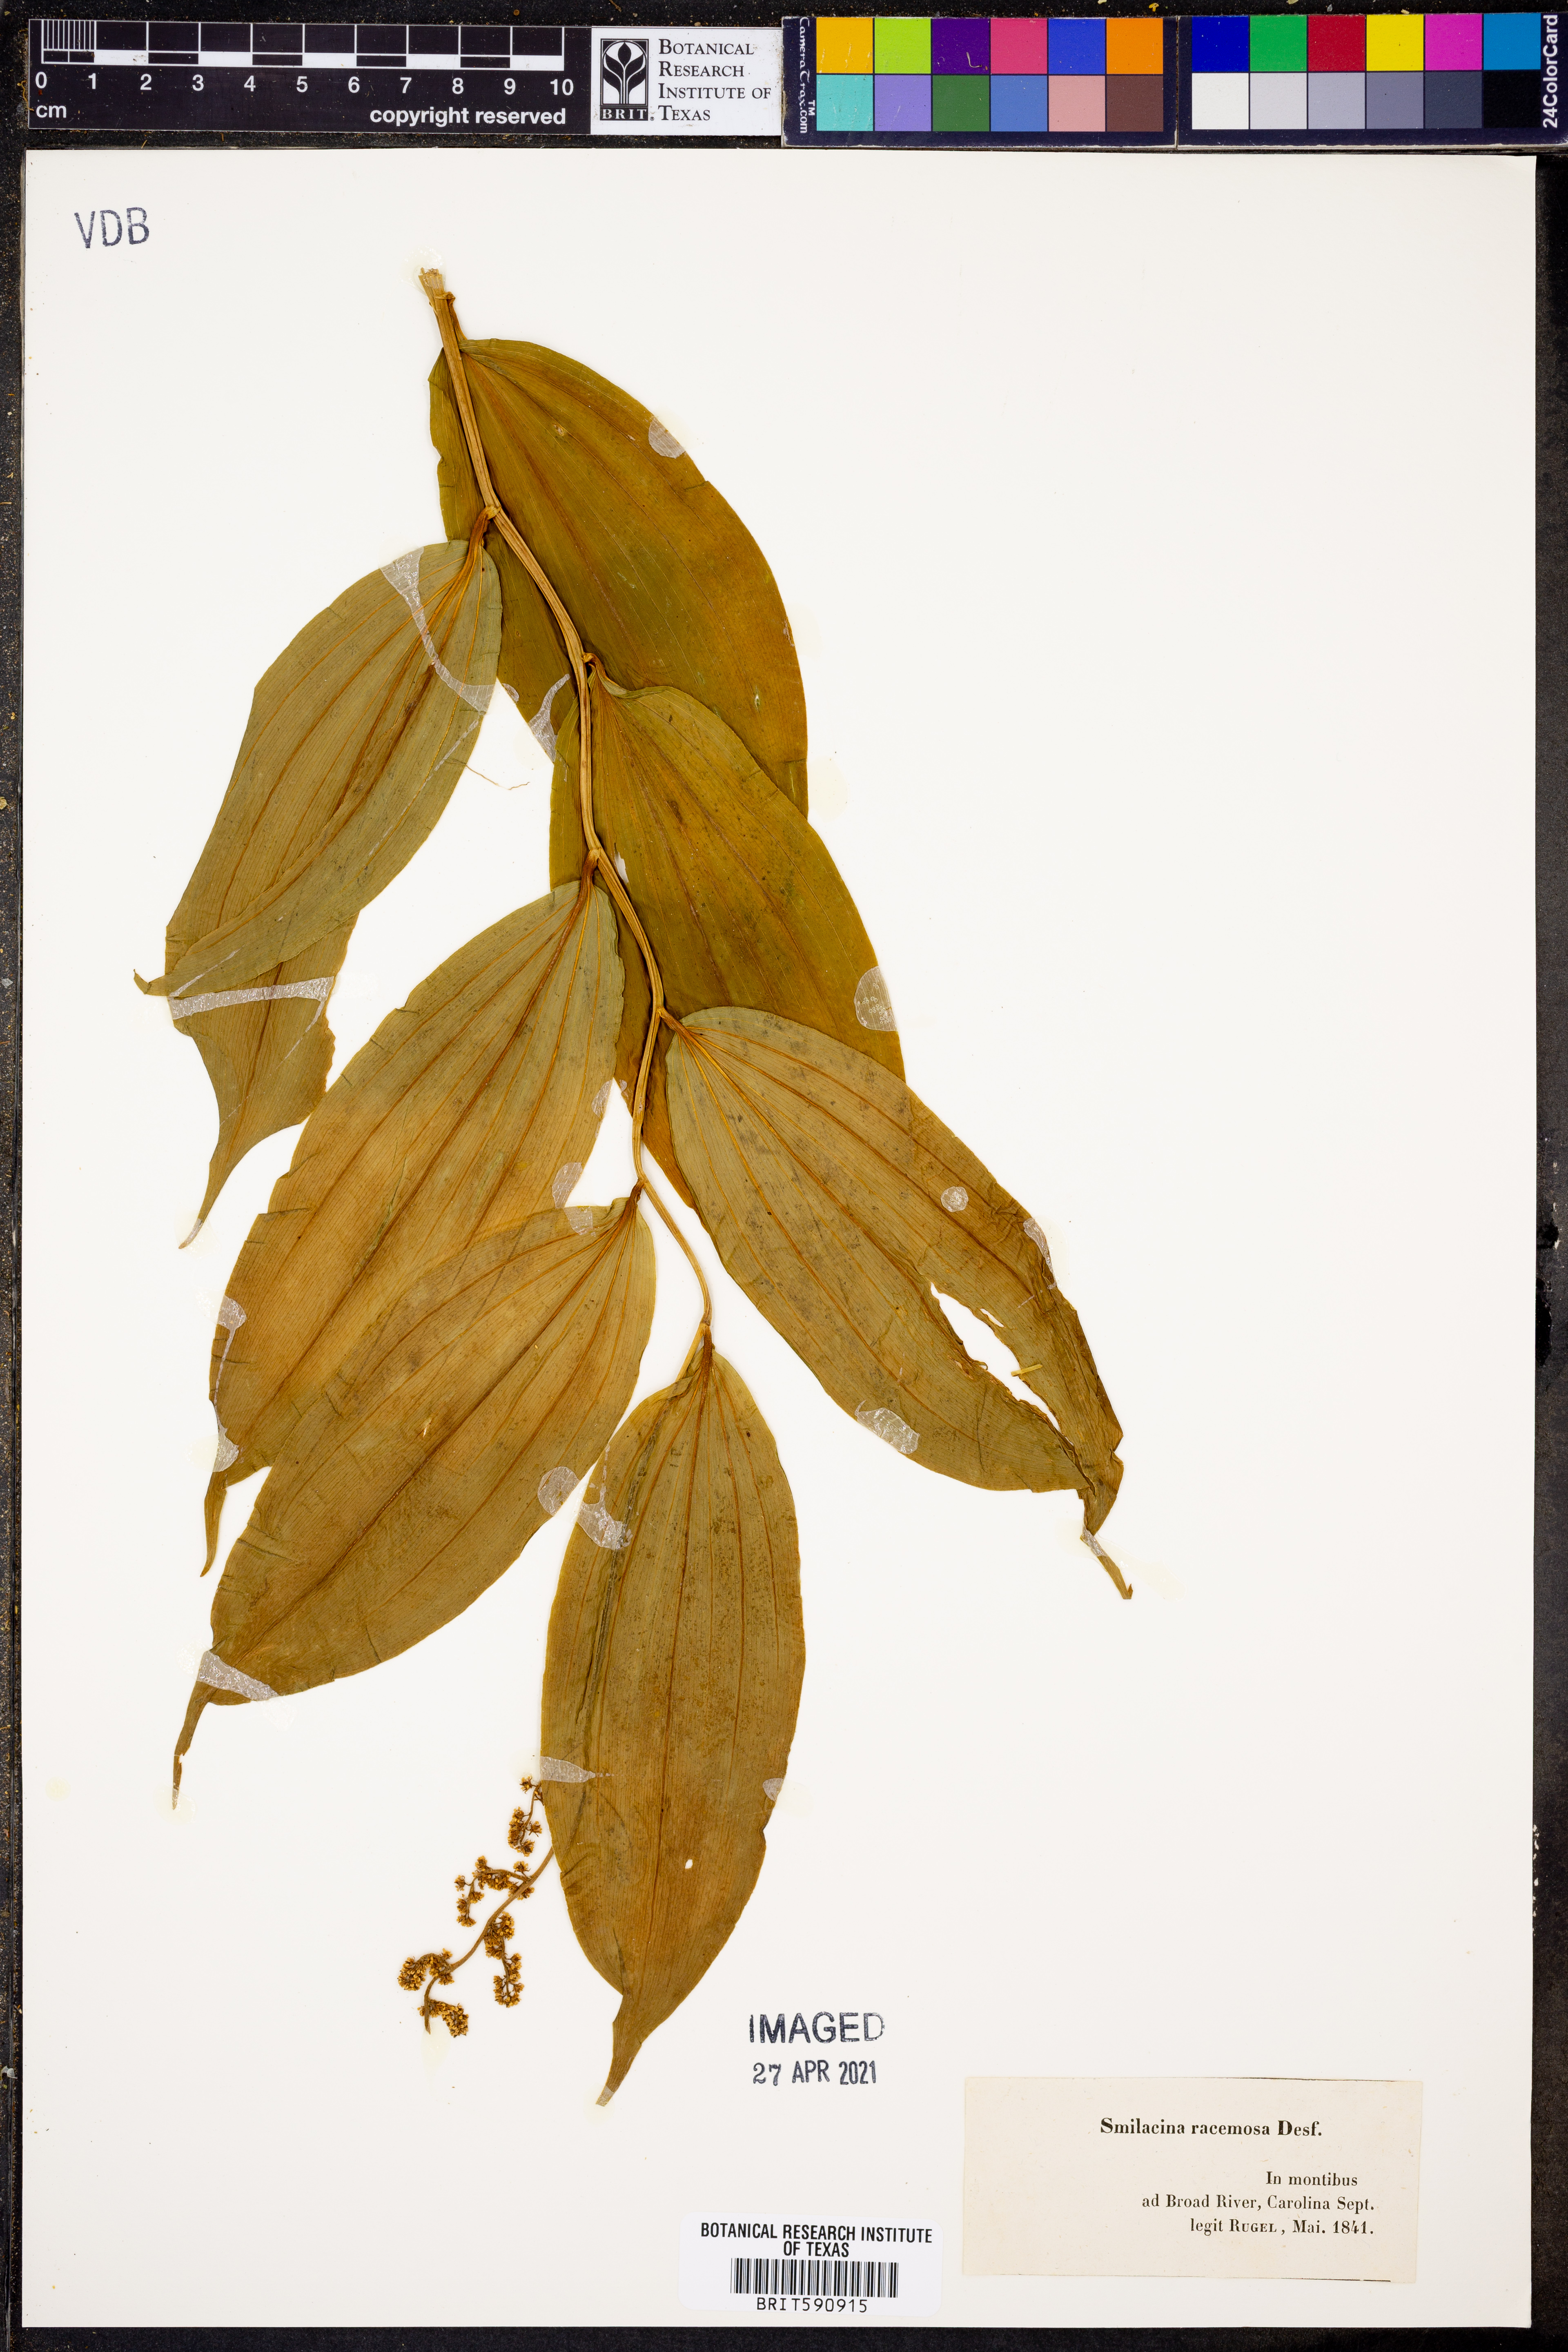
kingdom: Plantae
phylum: Tracheophyta
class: Liliopsida
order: Asparagales
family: Asparagaceae
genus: Maianthemum
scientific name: Maianthemum racemosum
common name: False spikenard
